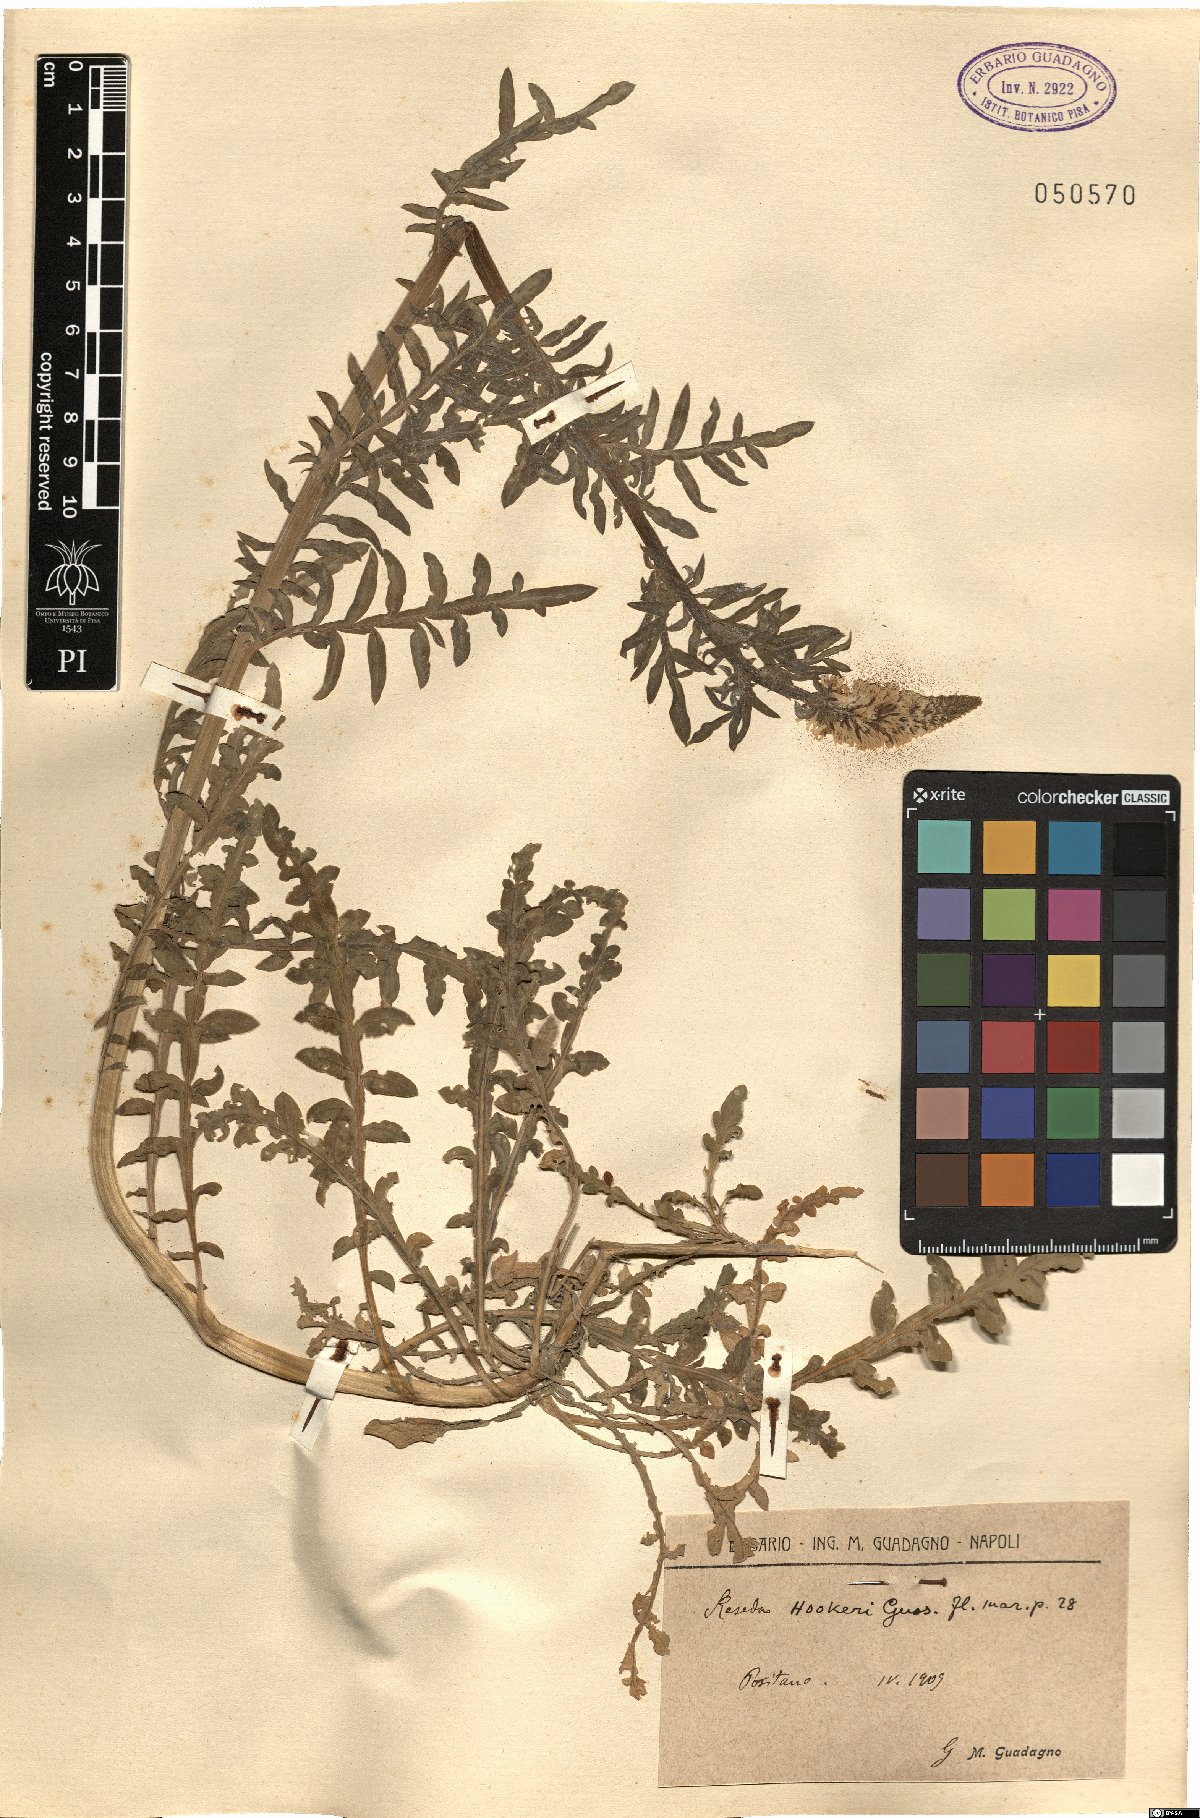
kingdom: Plantae
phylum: Tracheophyta
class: Magnoliopsida
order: Brassicales
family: Resedaceae
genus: Reseda
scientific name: Reseda alba
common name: White mignonette
